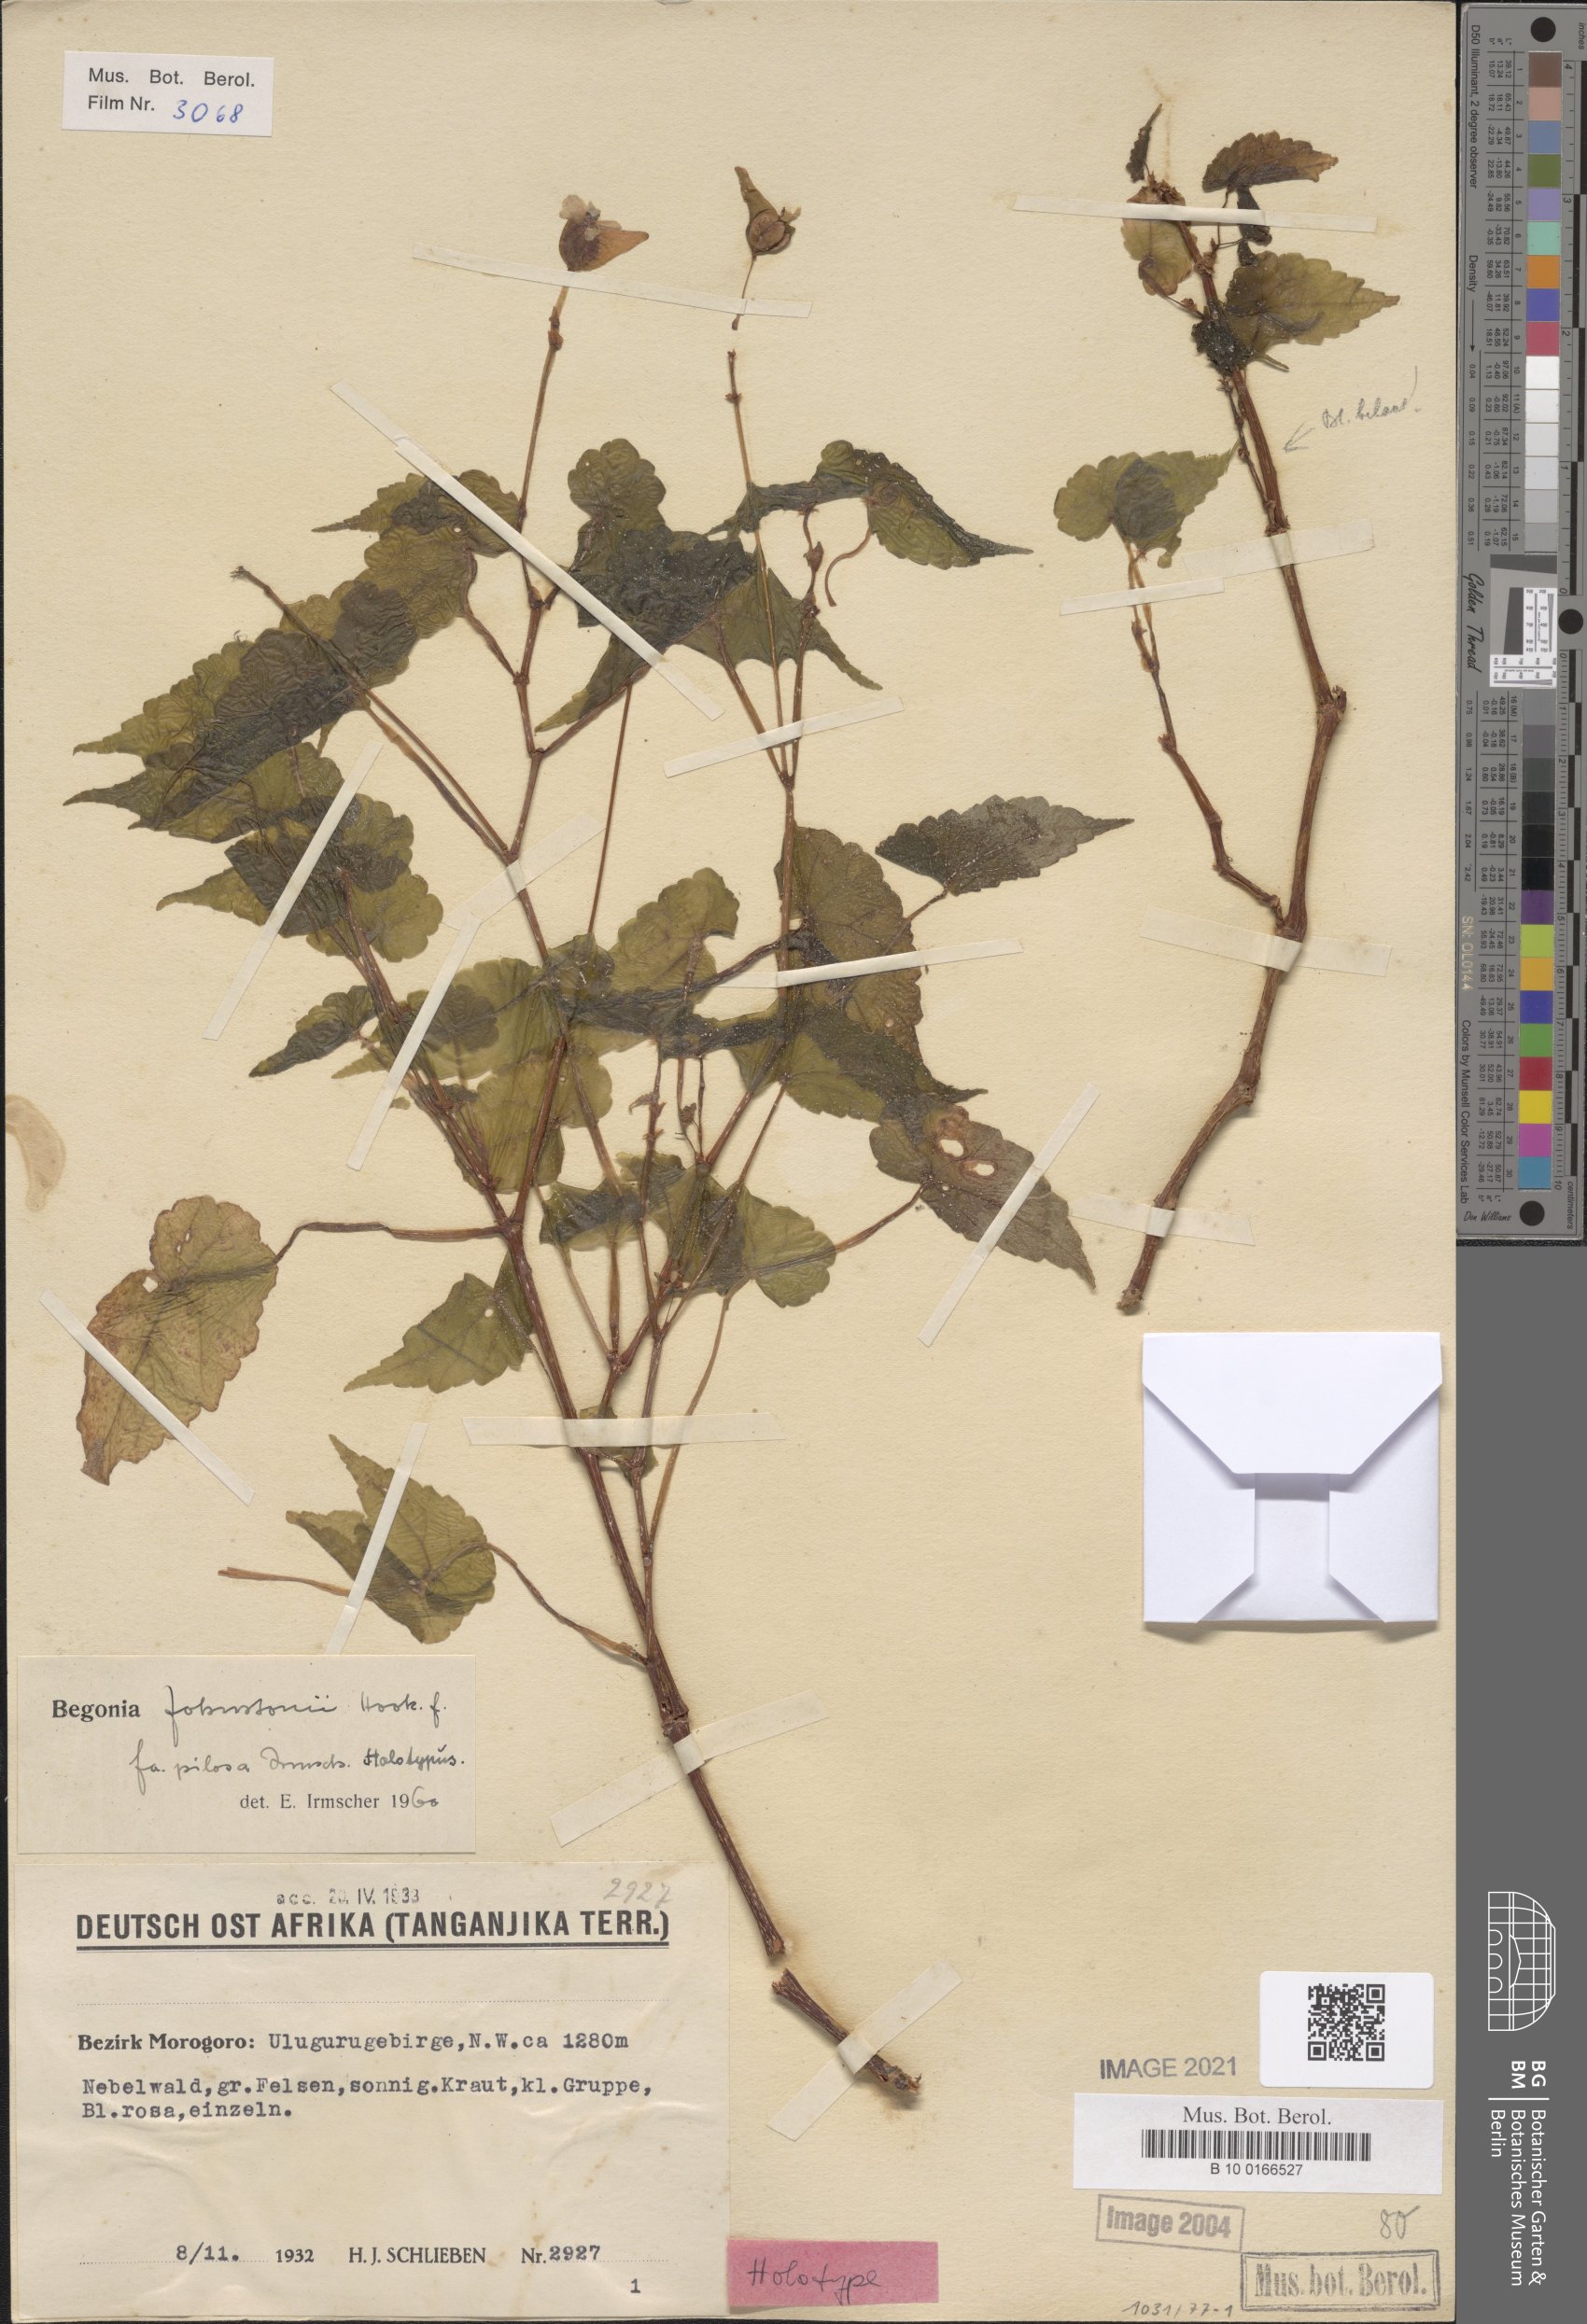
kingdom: Plantae
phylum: Tracheophyta
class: Magnoliopsida
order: Cucurbitales
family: Begoniaceae
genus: Begonia
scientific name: Begonia johnstoni
